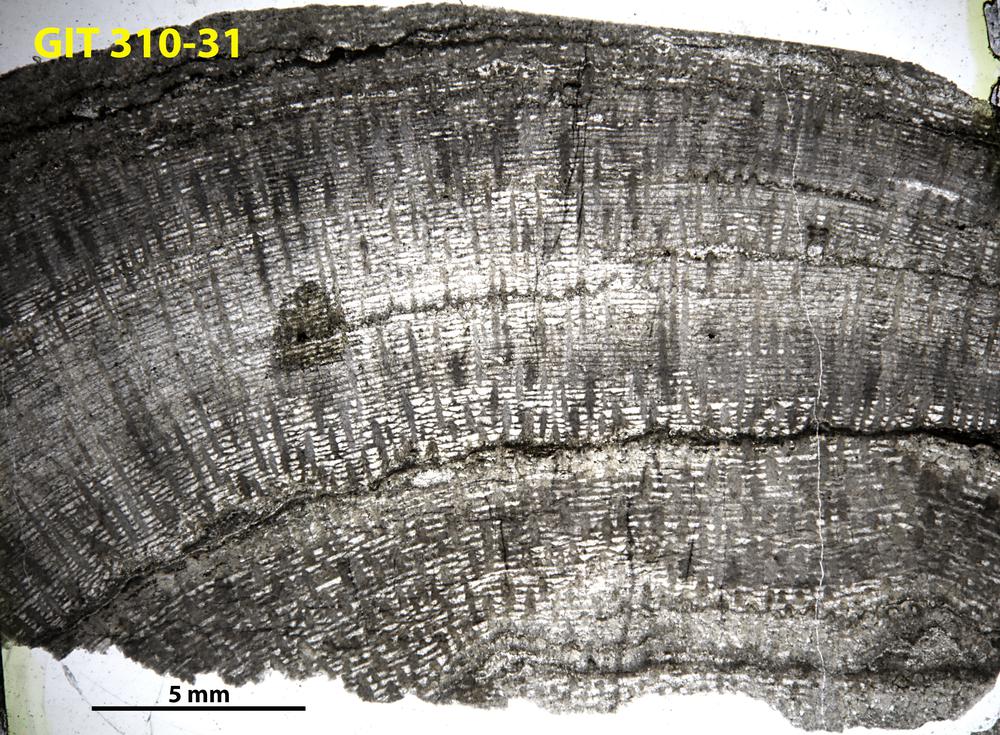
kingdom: Animalia
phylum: Porifera
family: Labechiidae
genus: Labechiella
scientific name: Labechiella regularis
